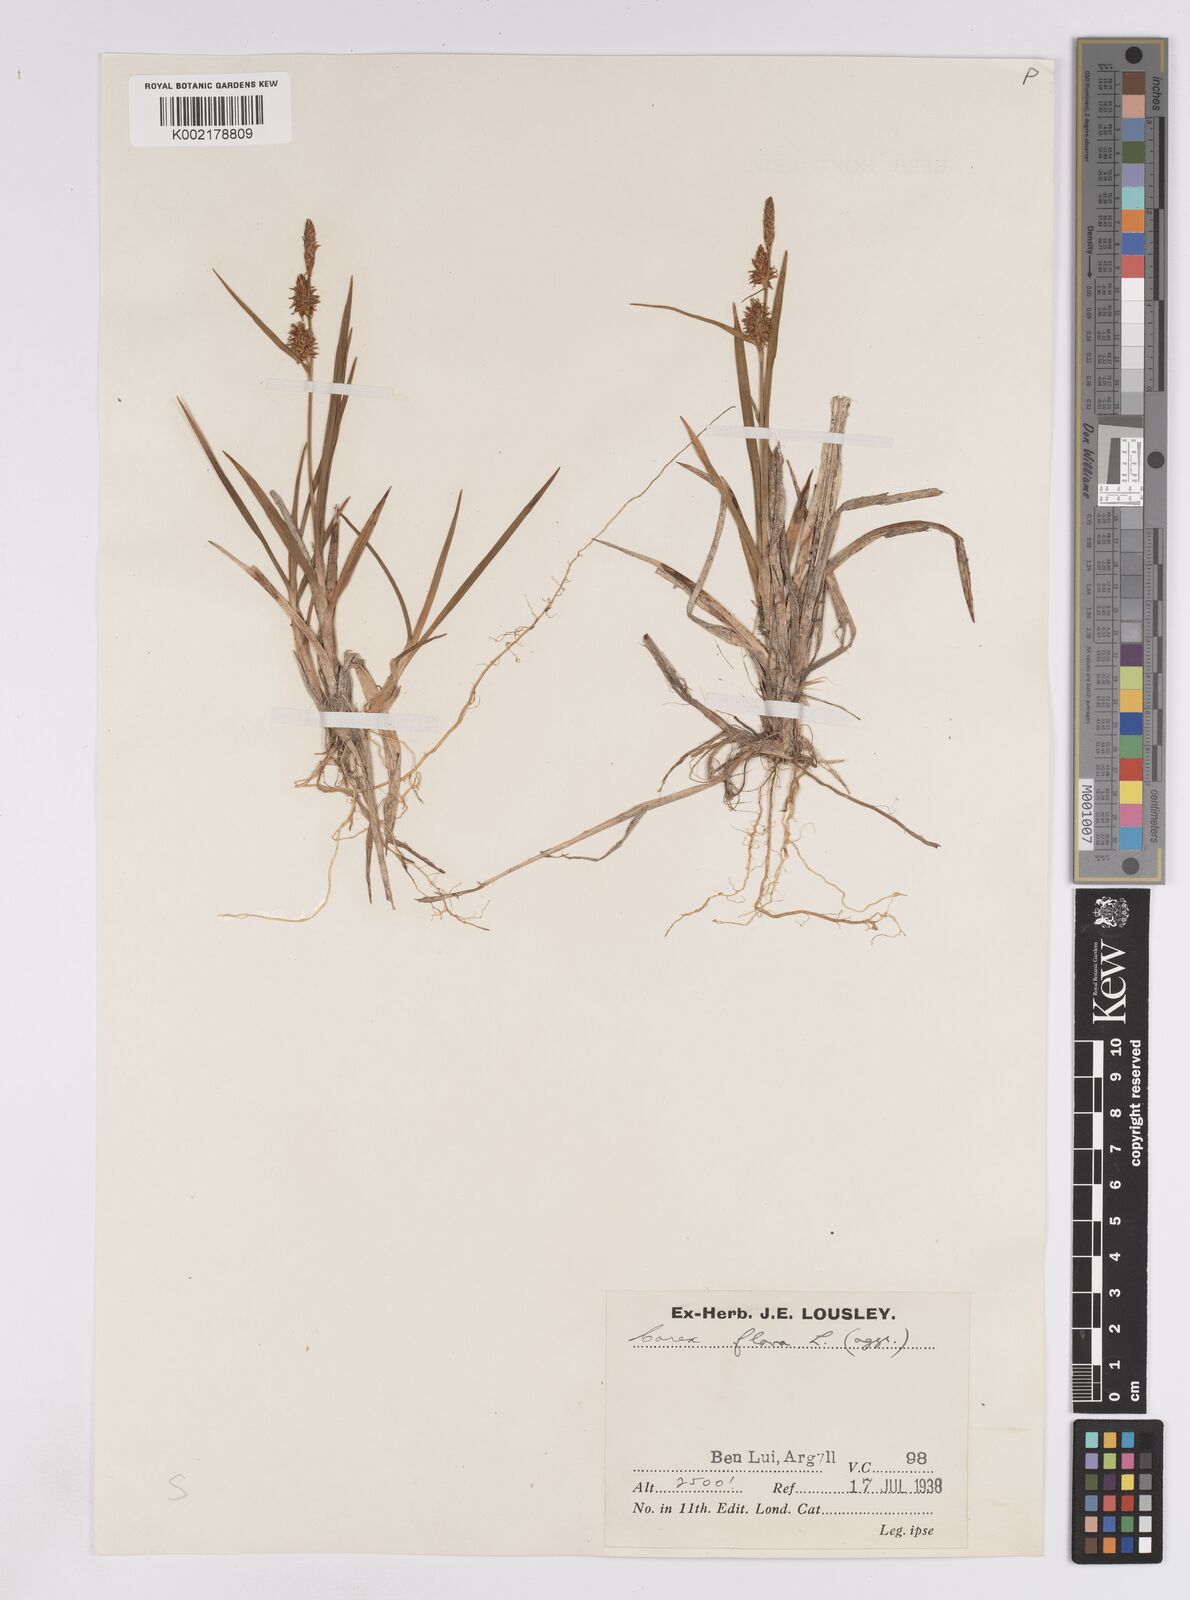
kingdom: Plantae
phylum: Tracheophyta
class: Liliopsida
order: Poales
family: Cyperaceae
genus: Carex
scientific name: Carex lepidocarpa
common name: Long-stalked yellow-sedge
